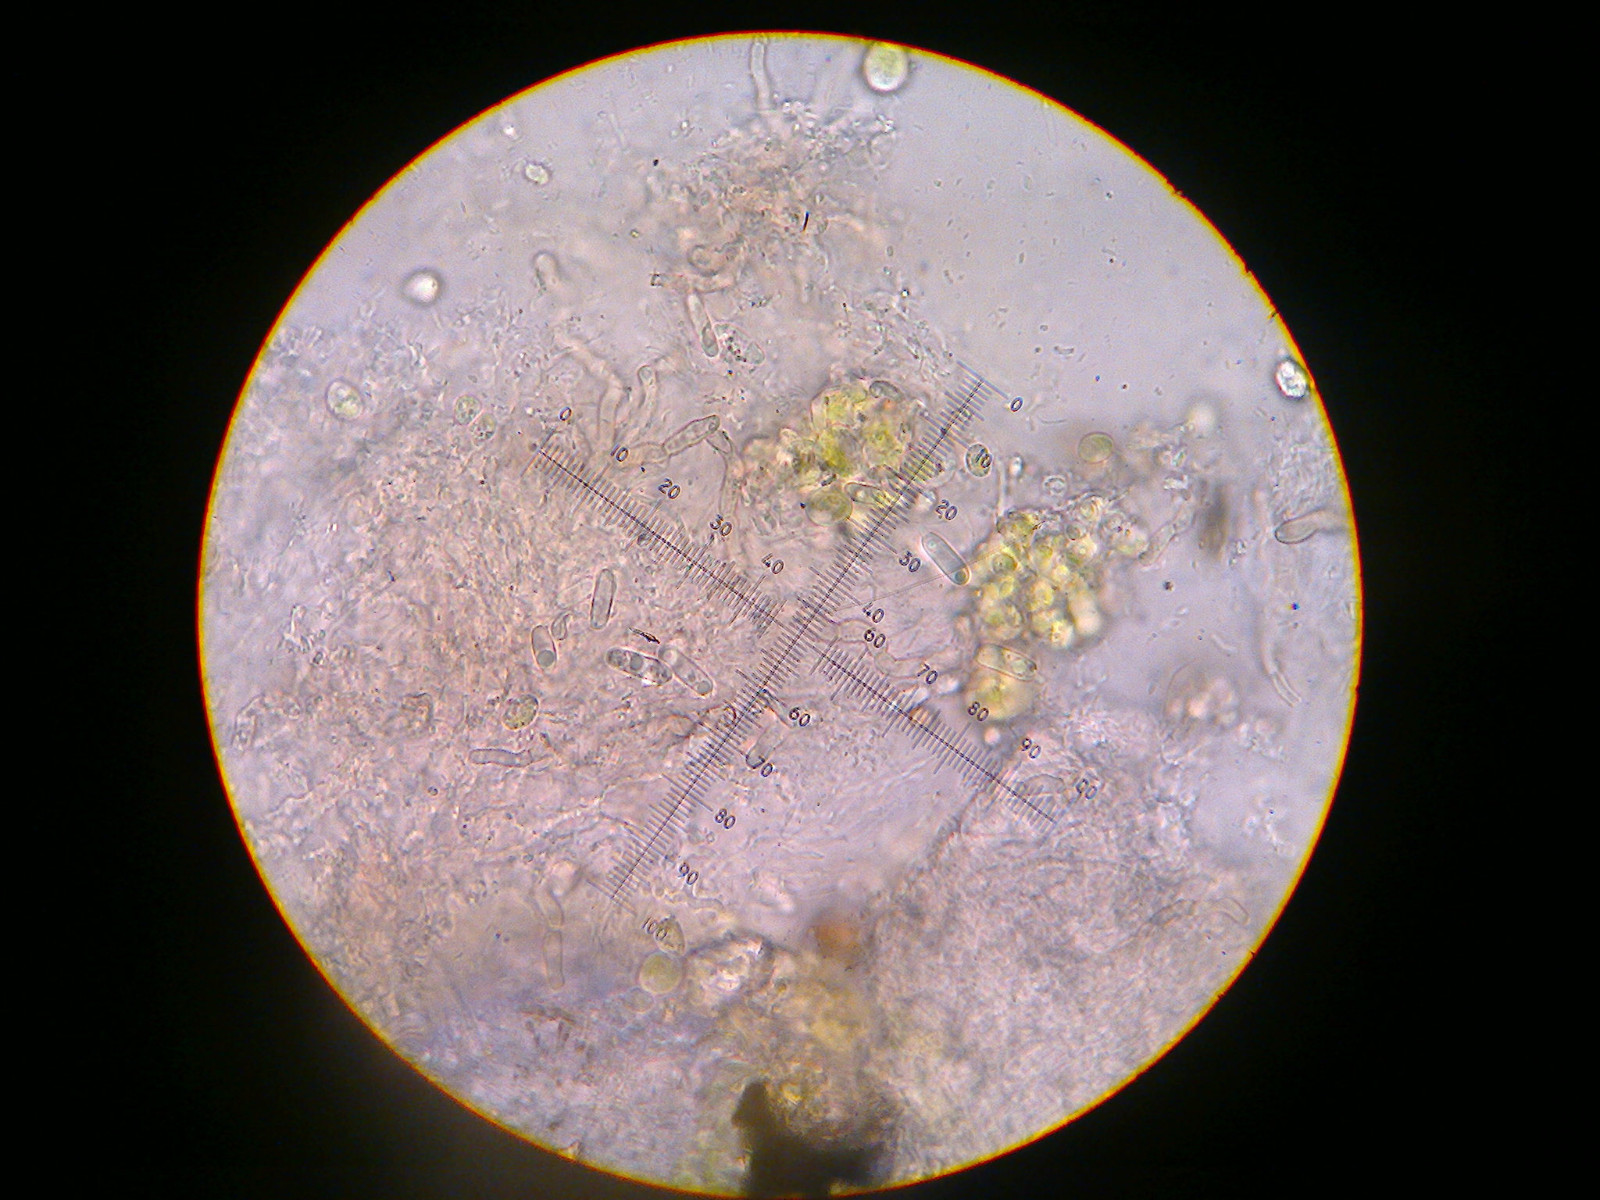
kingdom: Fungi
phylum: Ascomycota
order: Thelocarpales
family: Thelocarpaceae
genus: Sarcosagium
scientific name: Sarcosagium campestre
